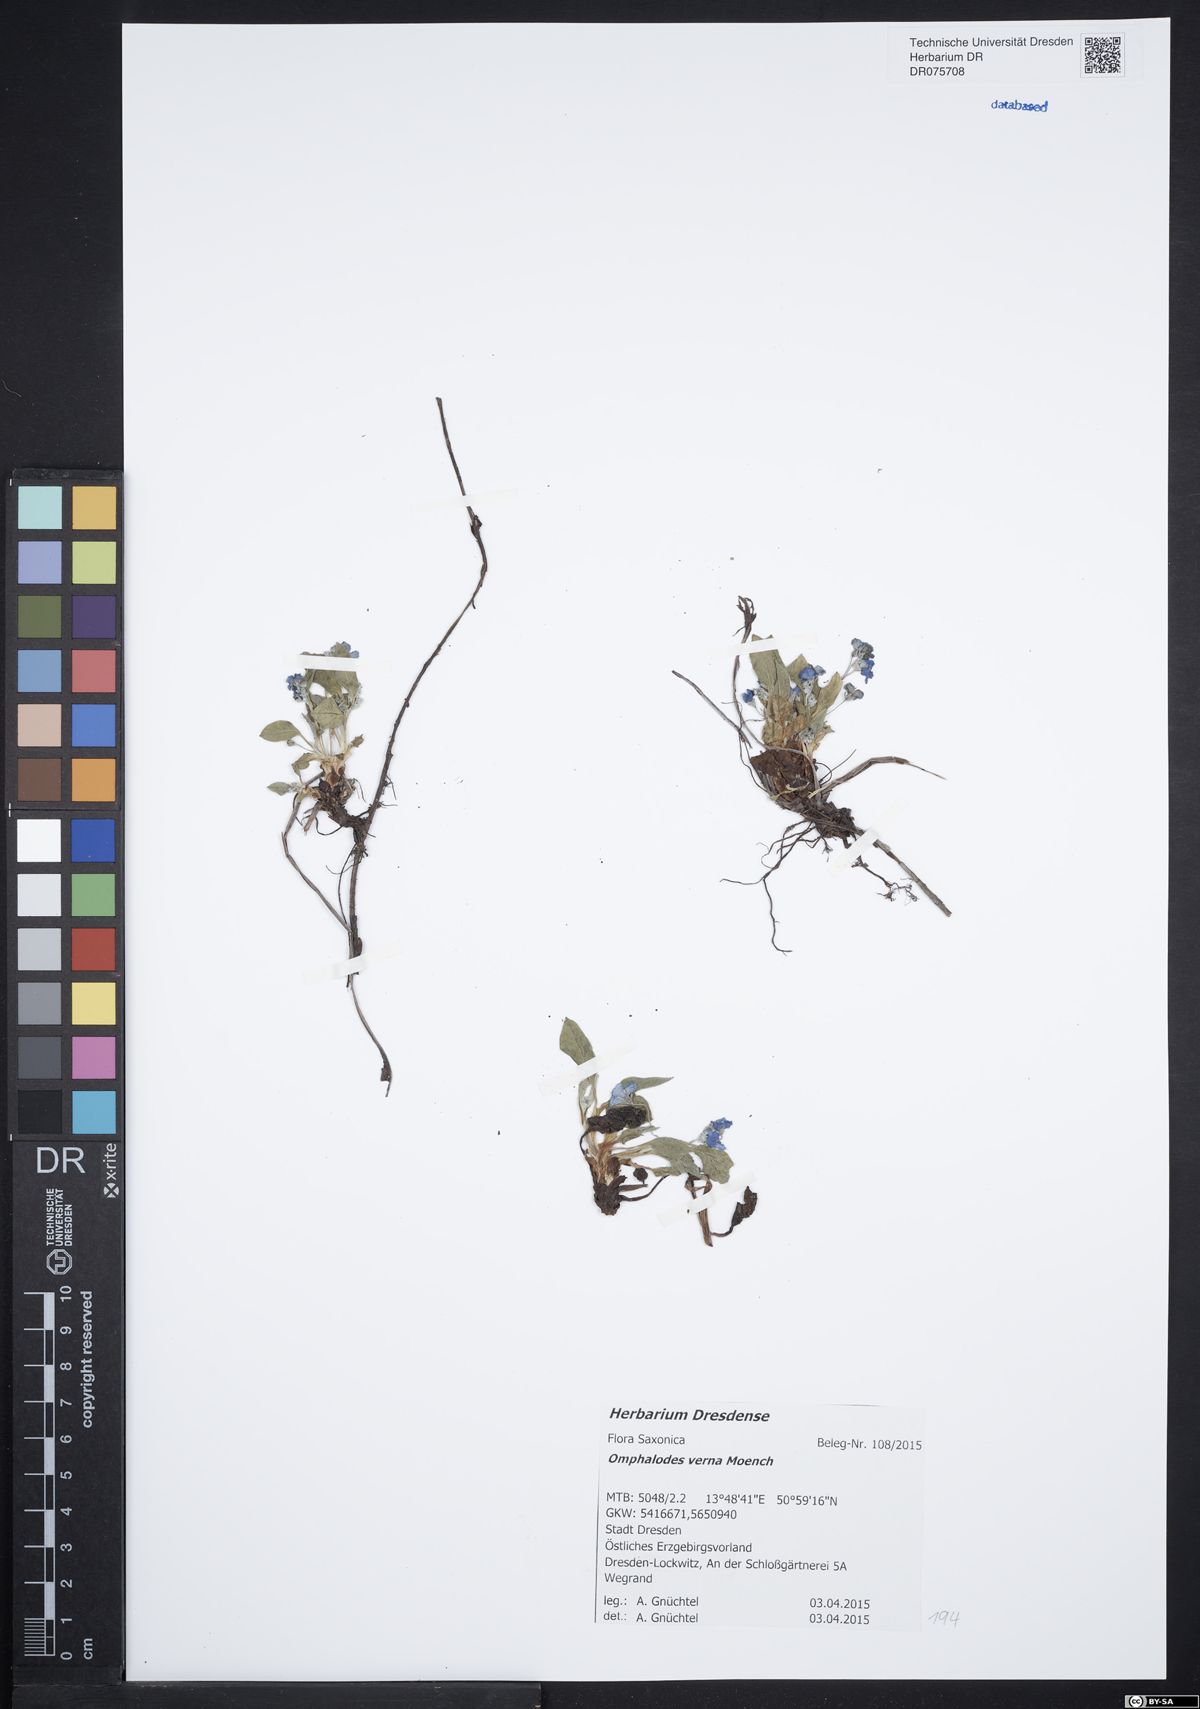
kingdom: Plantae
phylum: Tracheophyta
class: Magnoliopsida
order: Boraginales
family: Boraginaceae
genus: Omphalodes
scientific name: Omphalodes verna
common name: Blue-eyed-mary
